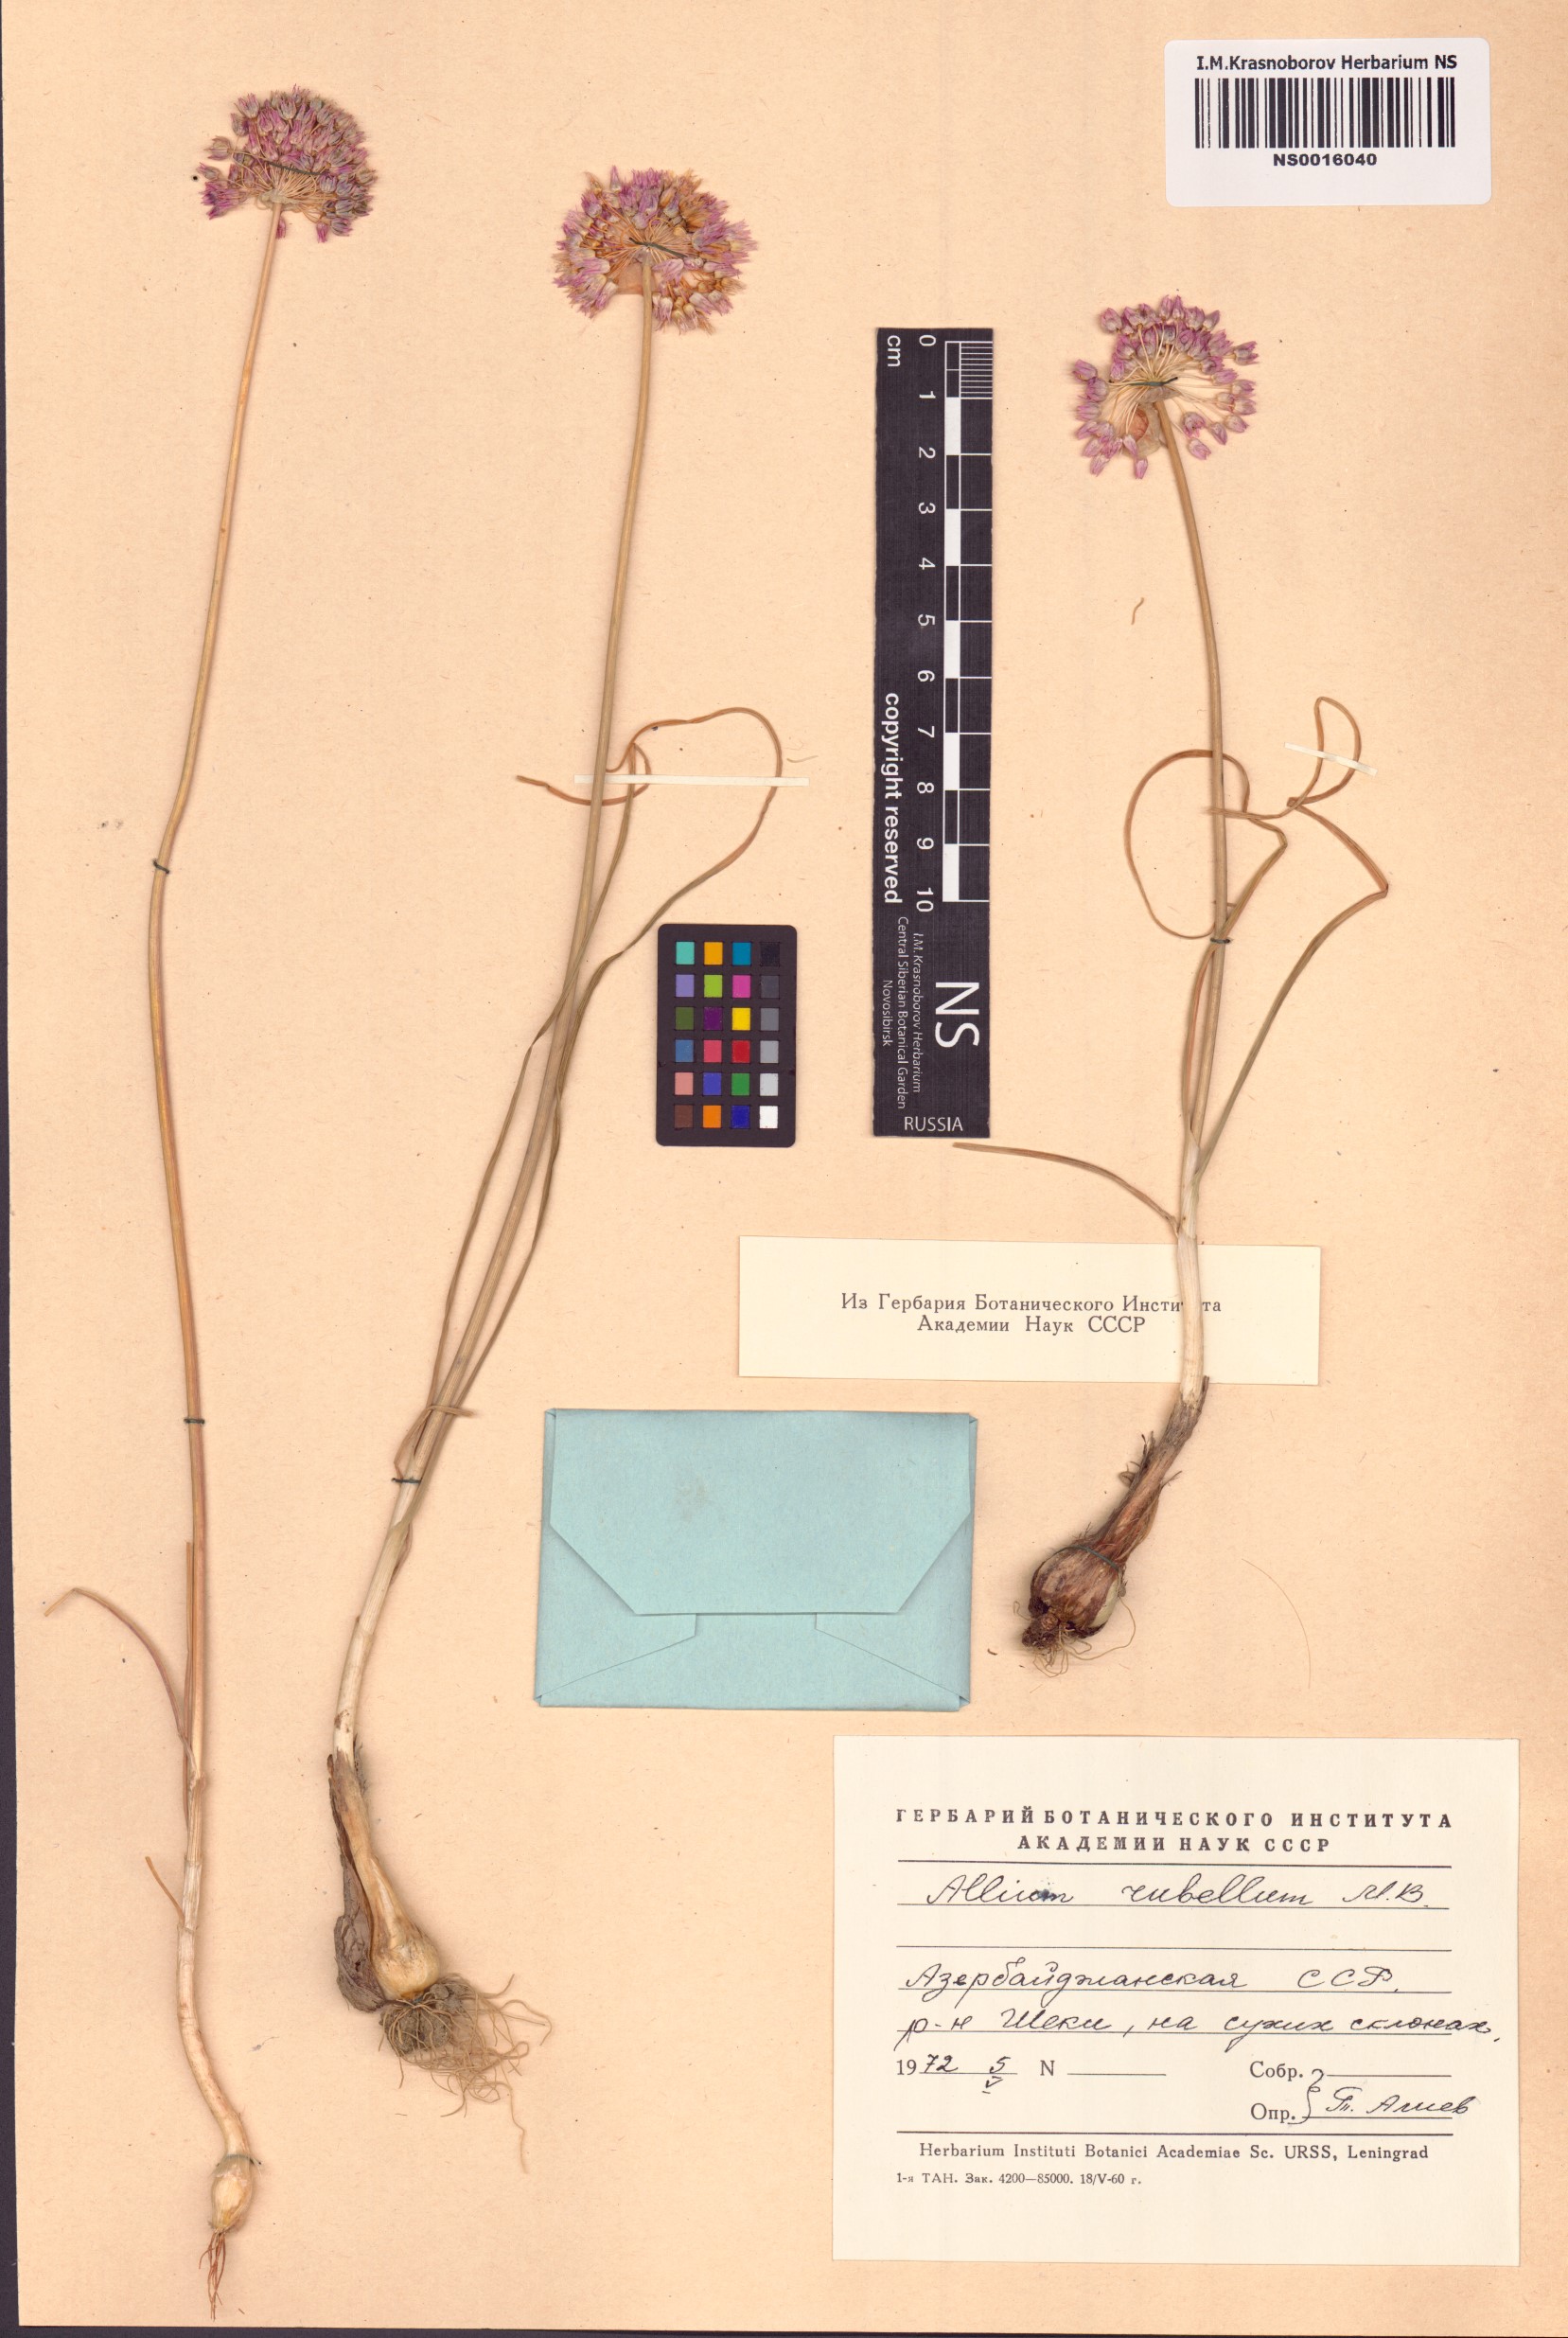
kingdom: Plantae
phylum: Tracheophyta
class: Liliopsida
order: Asparagales
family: Amaryllidaceae
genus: Allium
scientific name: Allium rubellum
